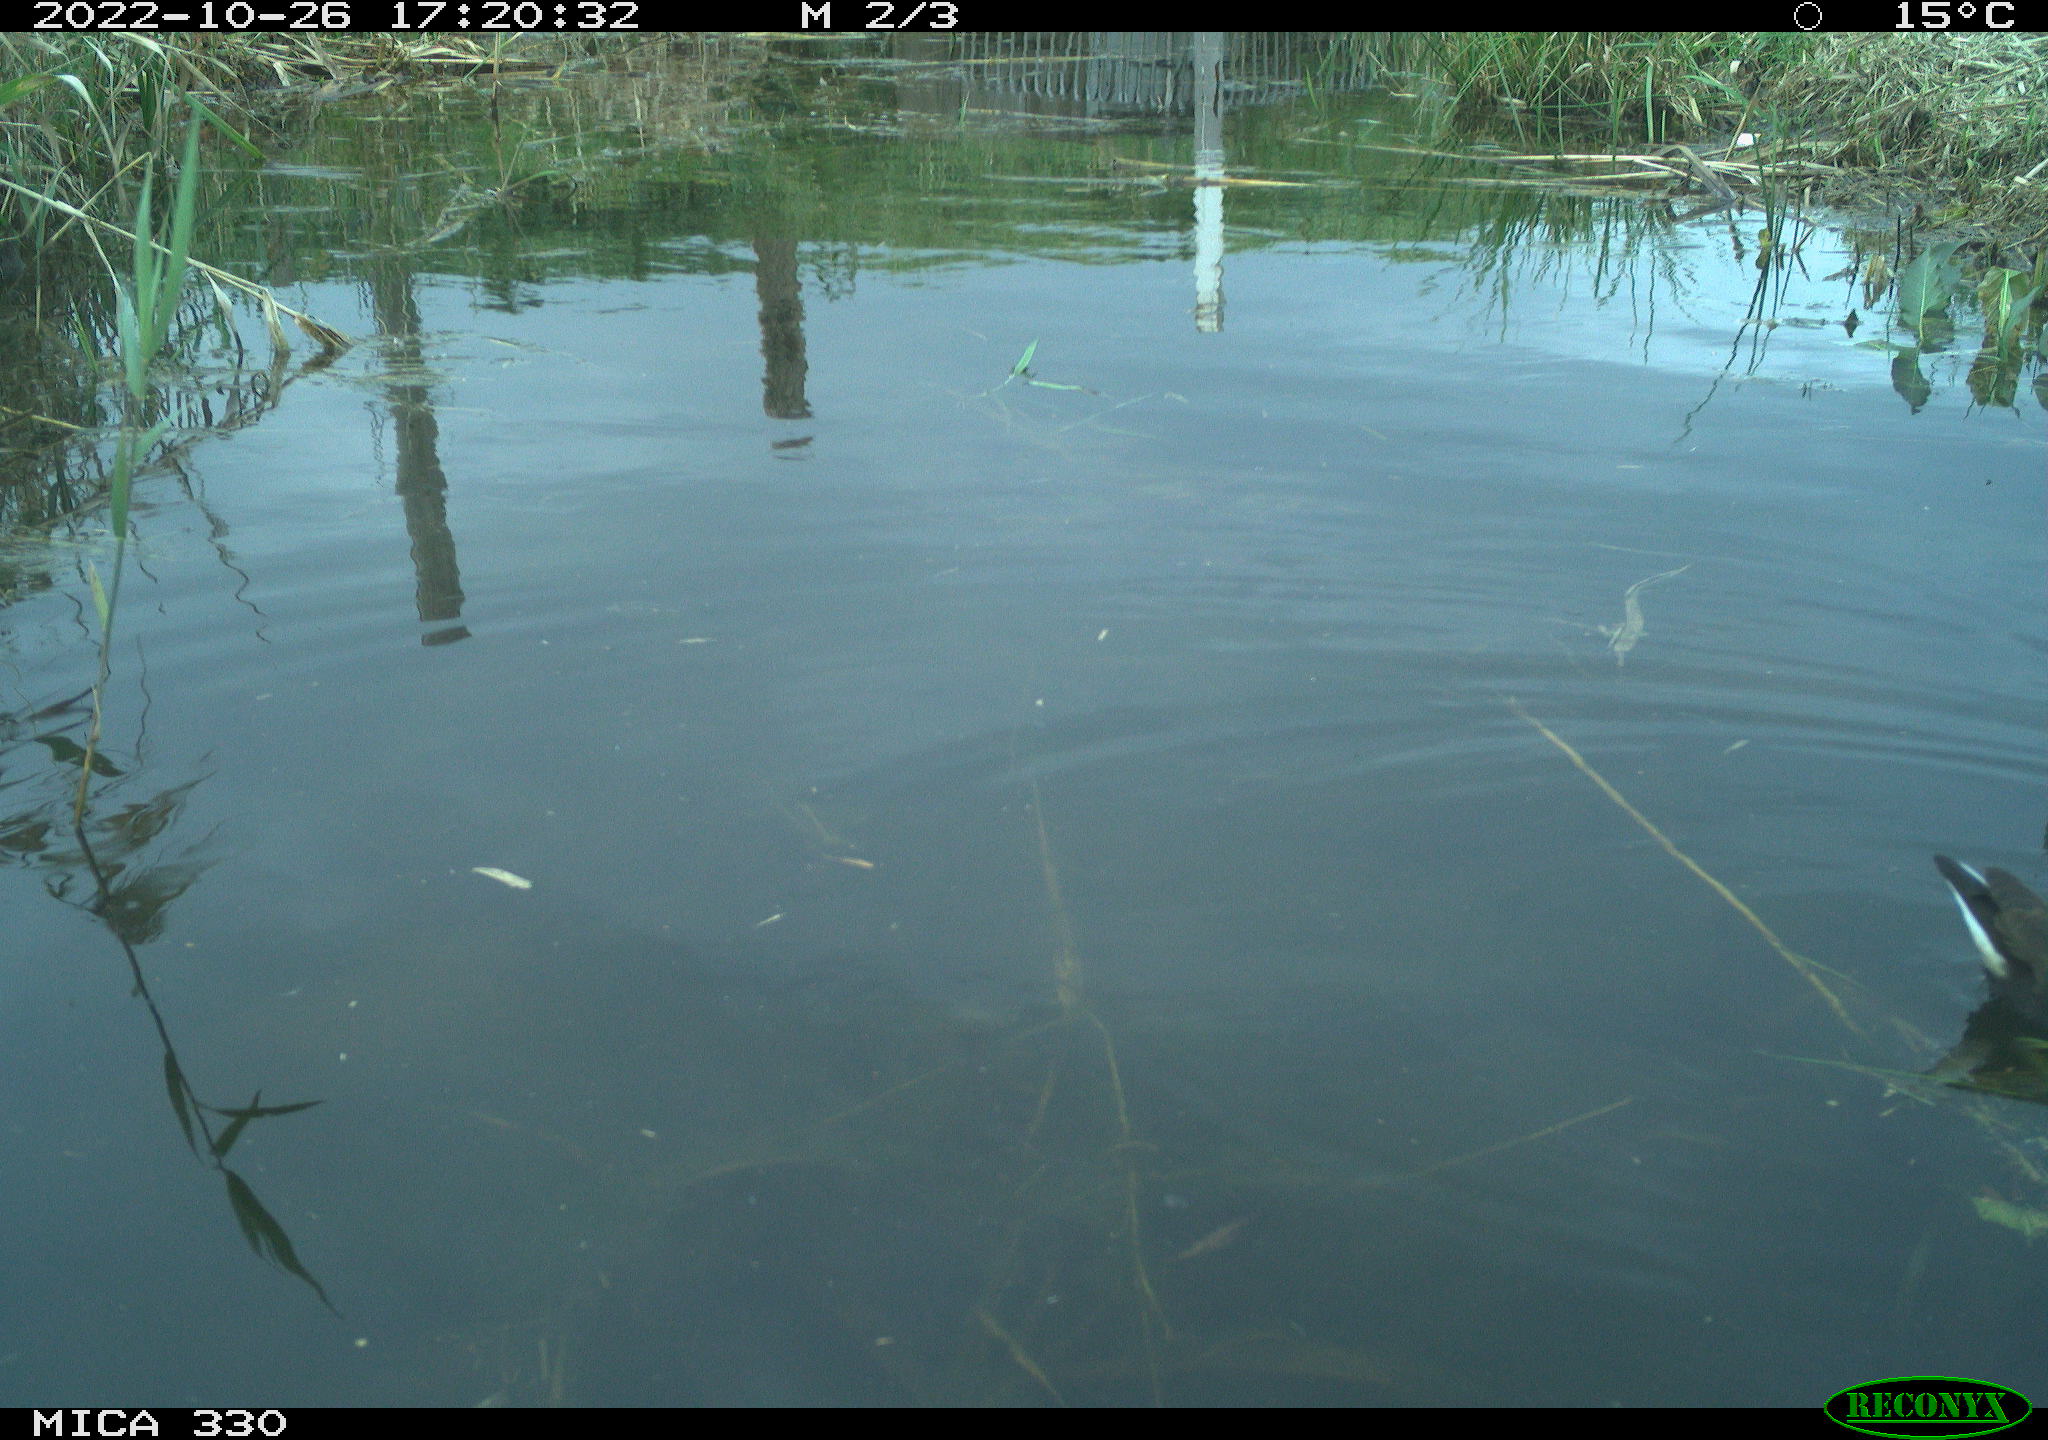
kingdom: Animalia
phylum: Chordata
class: Aves
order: Gruiformes
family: Rallidae
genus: Gallinula
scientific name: Gallinula chloropus
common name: Common moorhen
